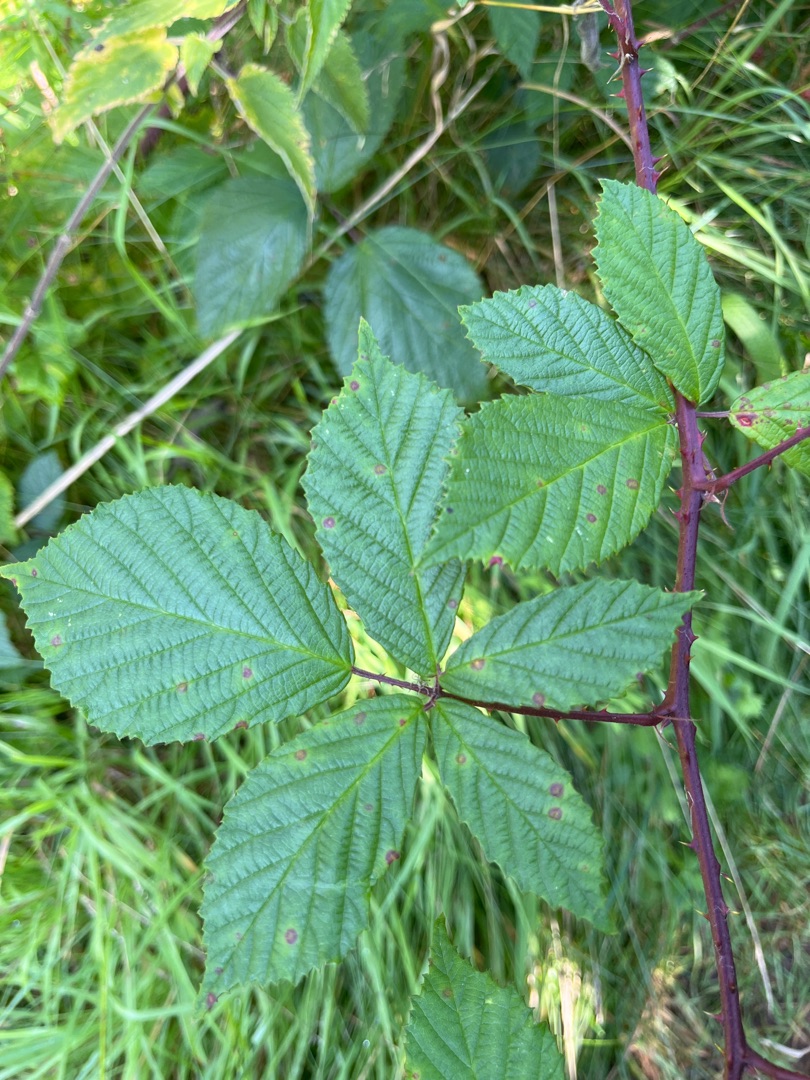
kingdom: Plantae
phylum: Tracheophyta
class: Magnoliopsida
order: Rosales
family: Rosaceae
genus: Rubus
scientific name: Rubus radula
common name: Rasperu brombær
